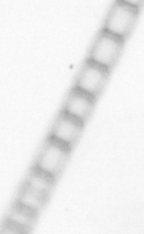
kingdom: Chromista
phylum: Ochrophyta
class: Bacillariophyceae
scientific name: Bacillariophyceae
